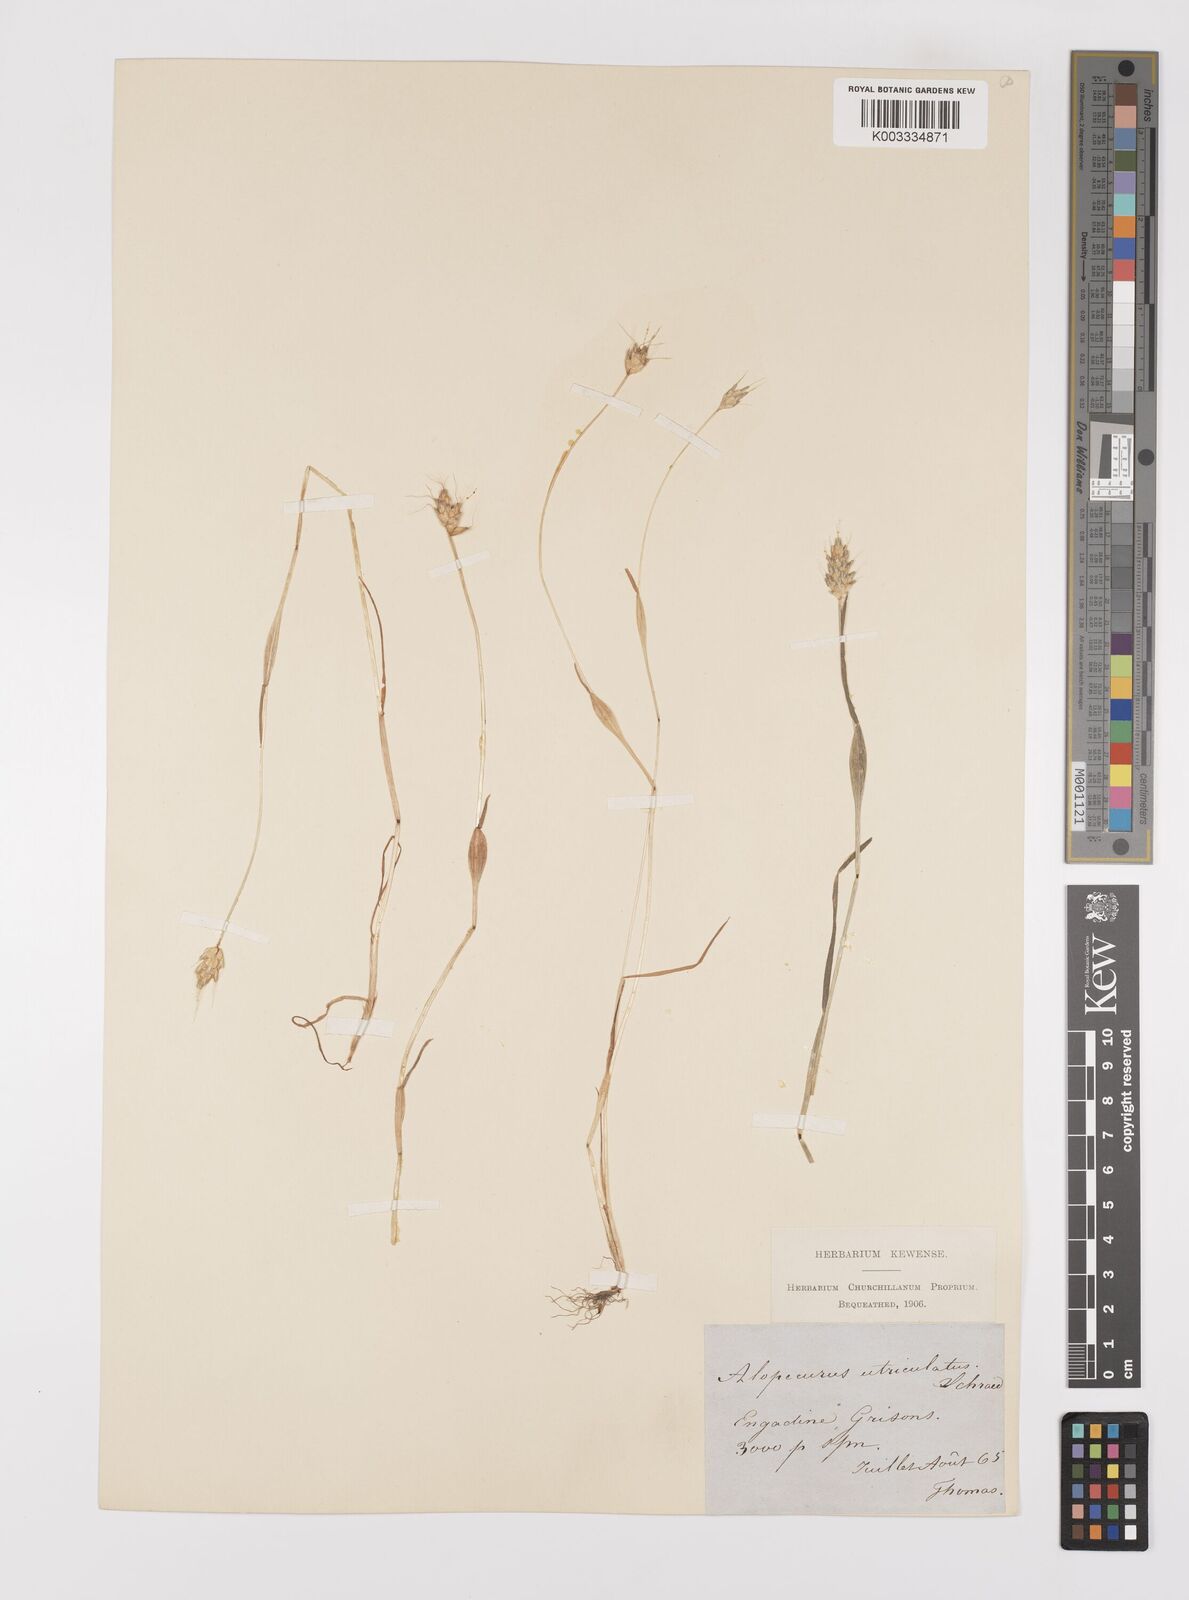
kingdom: Plantae
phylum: Tracheophyta
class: Liliopsida
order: Poales
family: Poaceae
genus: Alopecurus
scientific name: Alopecurus rendlei
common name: Rendle's meadow foxtail
